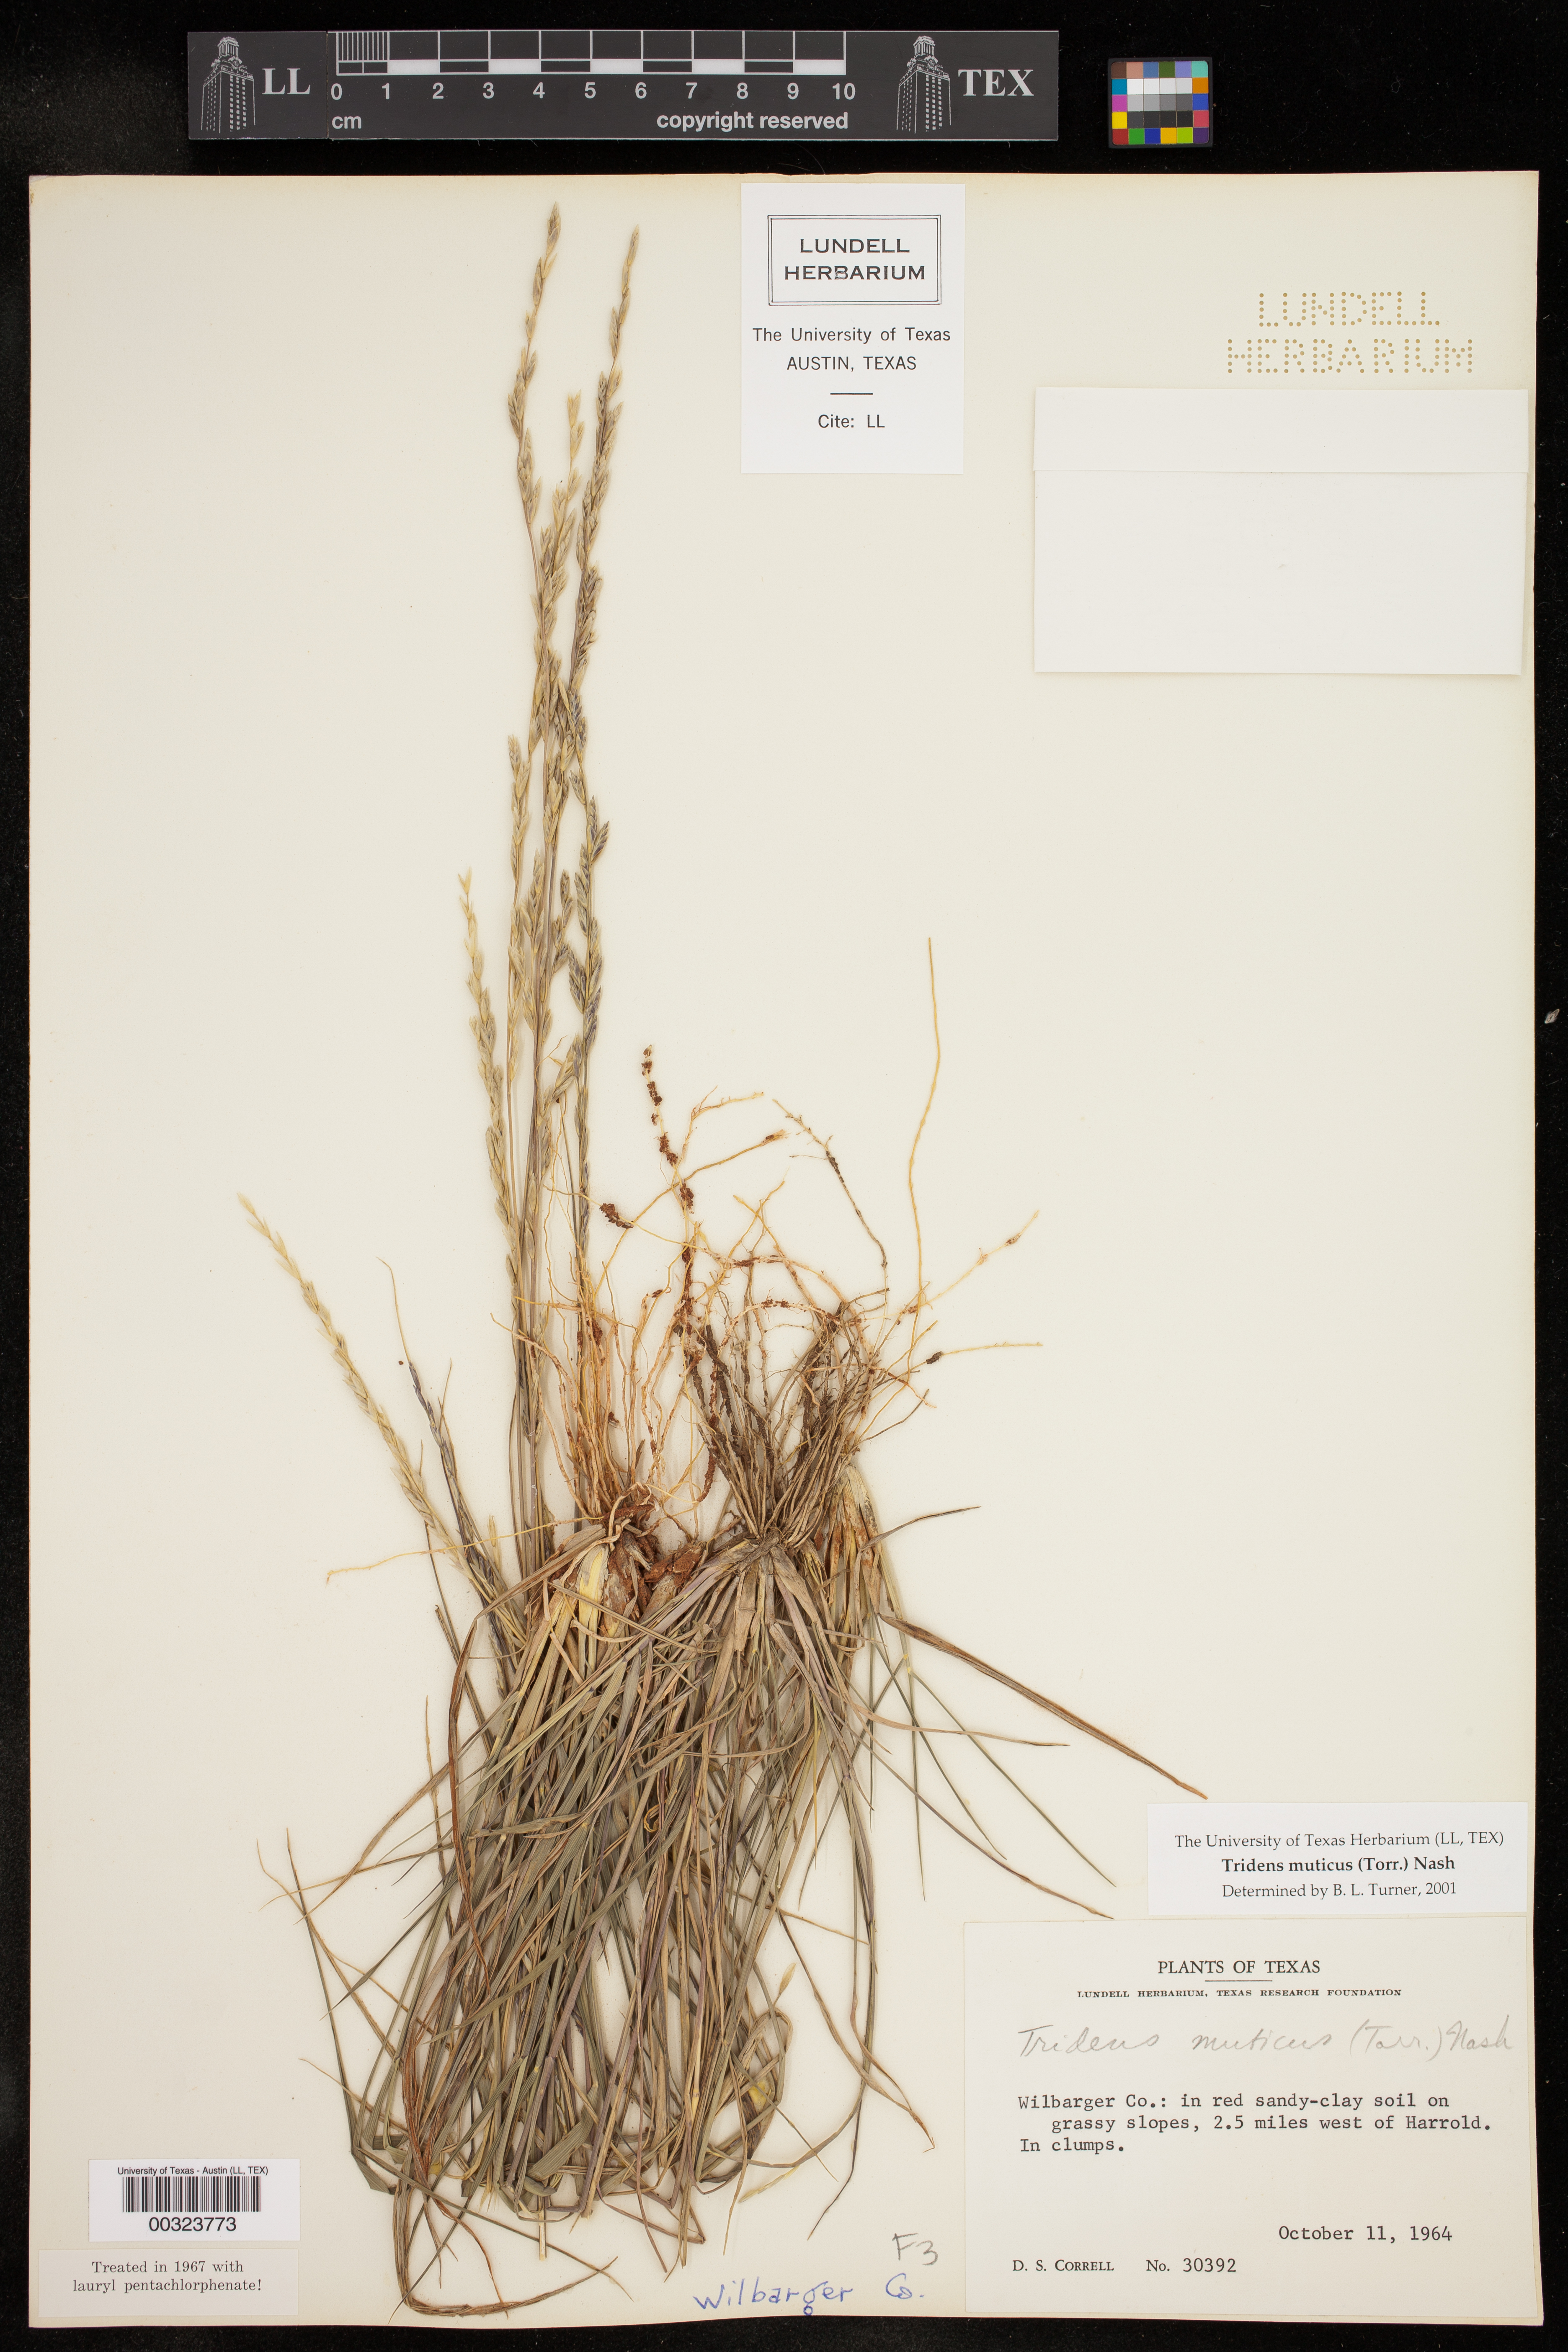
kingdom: Plantae
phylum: Tracheophyta
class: Liliopsida
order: Poales
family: Poaceae
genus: Tridentopsis
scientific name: Tridentopsis mutica
